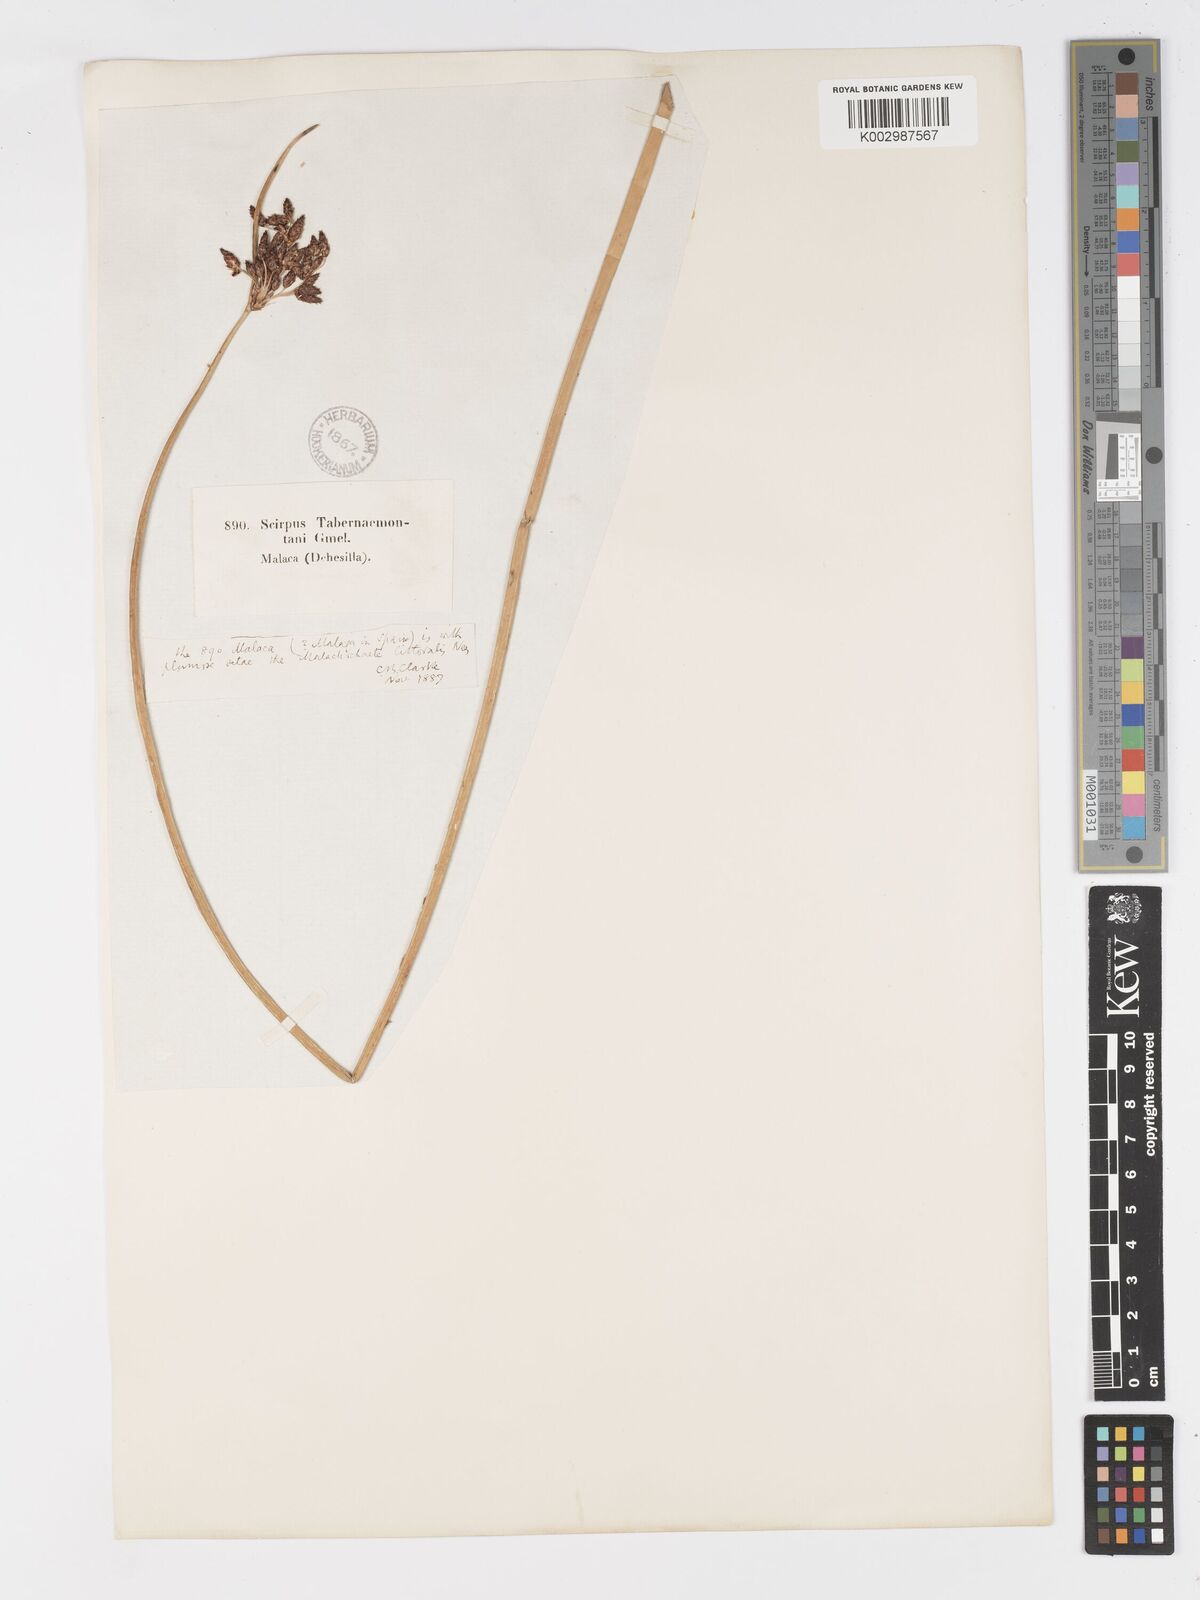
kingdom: Plantae
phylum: Tracheophyta
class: Liliopsida
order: Poales
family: Cyperaceae
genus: Schoenoplectus
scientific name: Schoenoplectus litoralis
